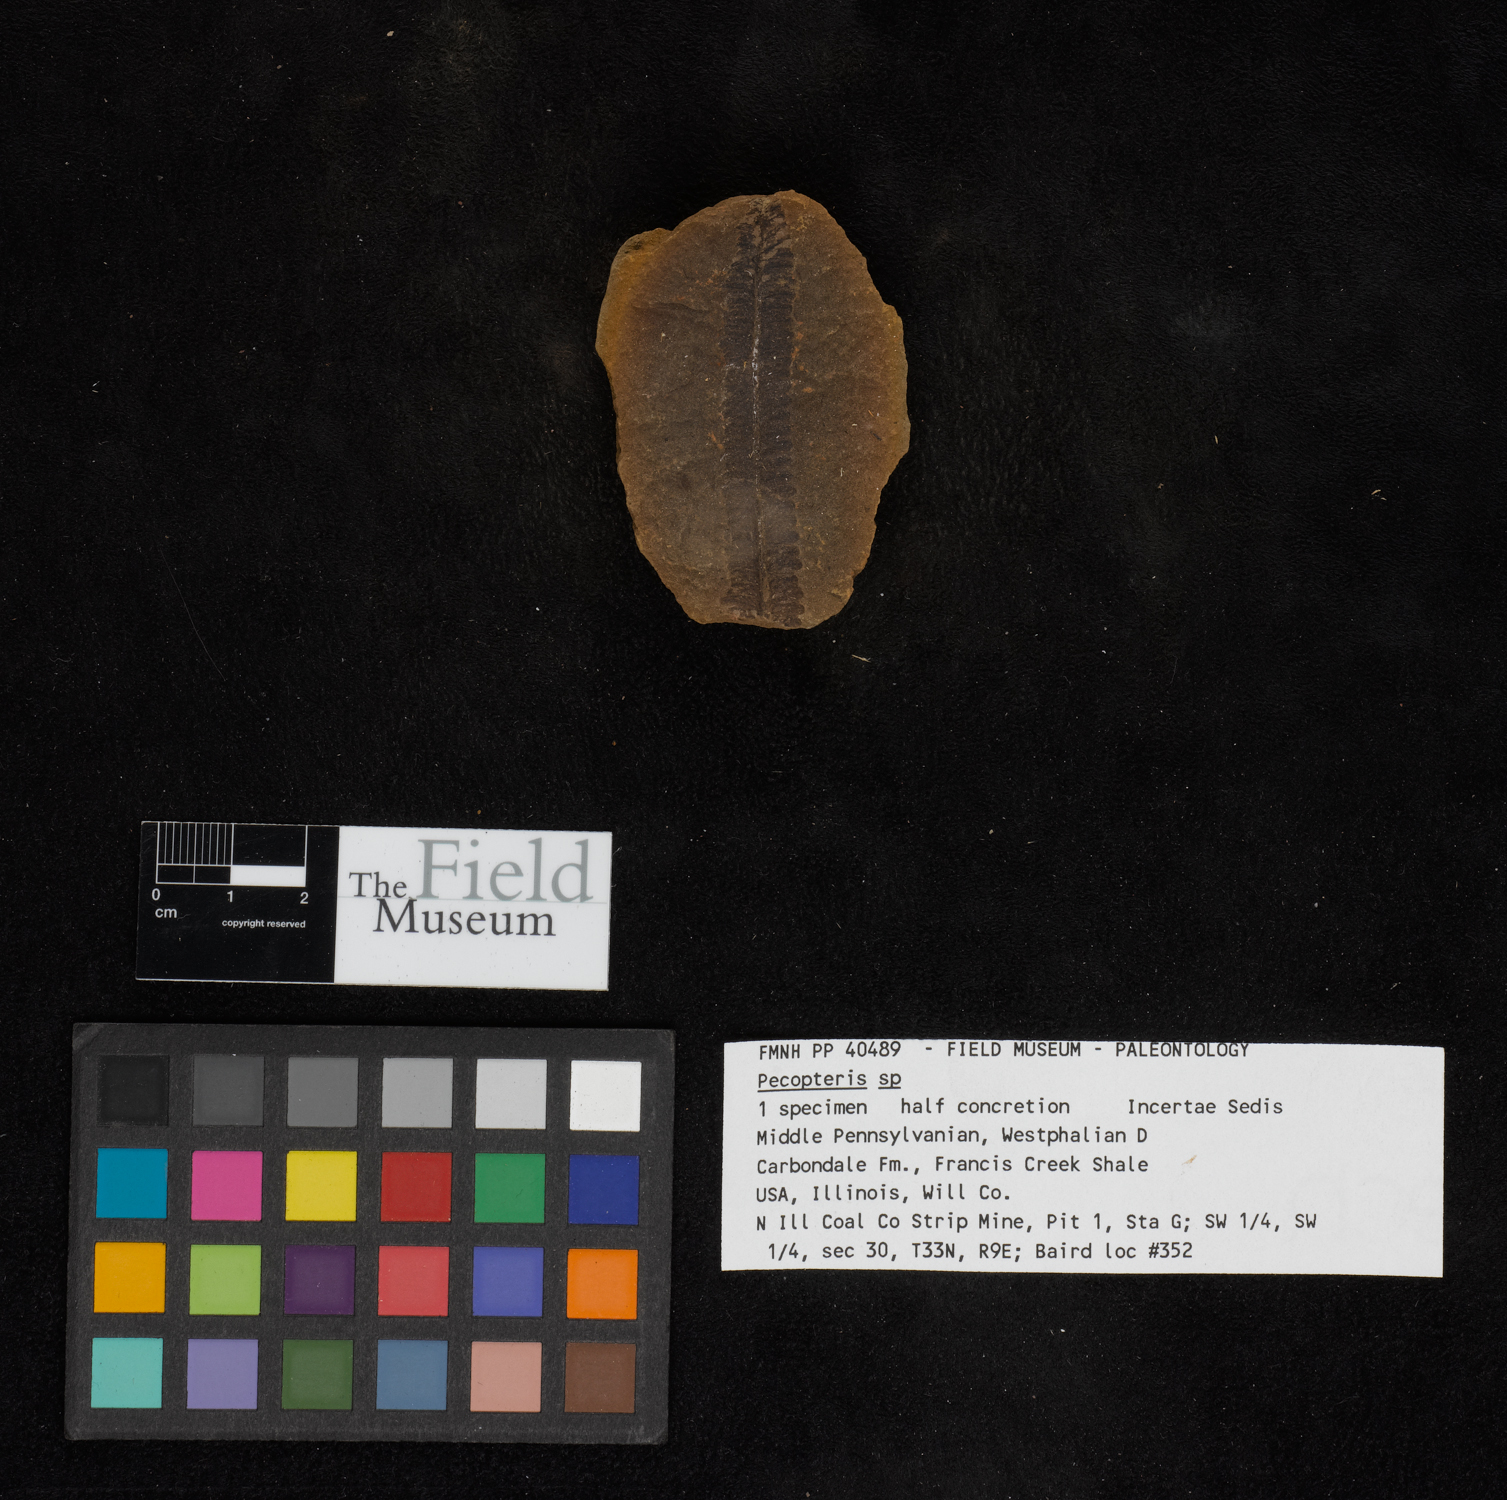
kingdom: Plantae
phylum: Tracheophyta
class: Polypodiopsida
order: Marattiales
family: Asterothecaceae
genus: Pecopteris
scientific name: Pecopteris
